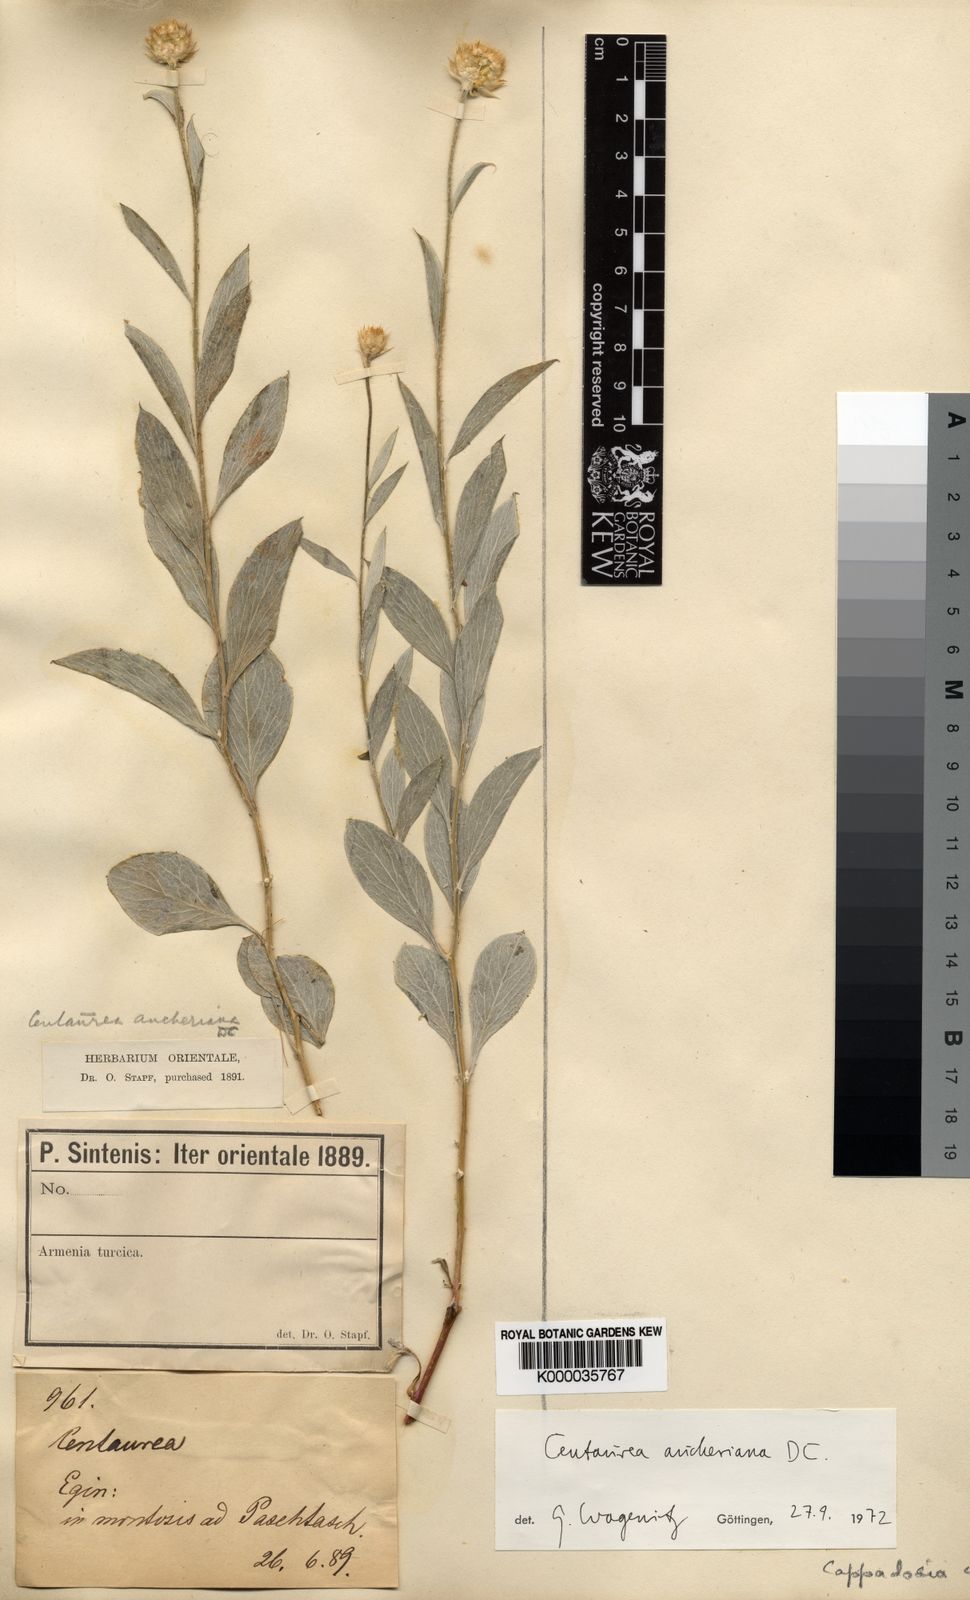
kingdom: Plantae
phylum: Tracheophyta
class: Magnoliopsida
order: Asterales
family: Asteraceae
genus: Centaurea
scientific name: Centaurea aucheri
